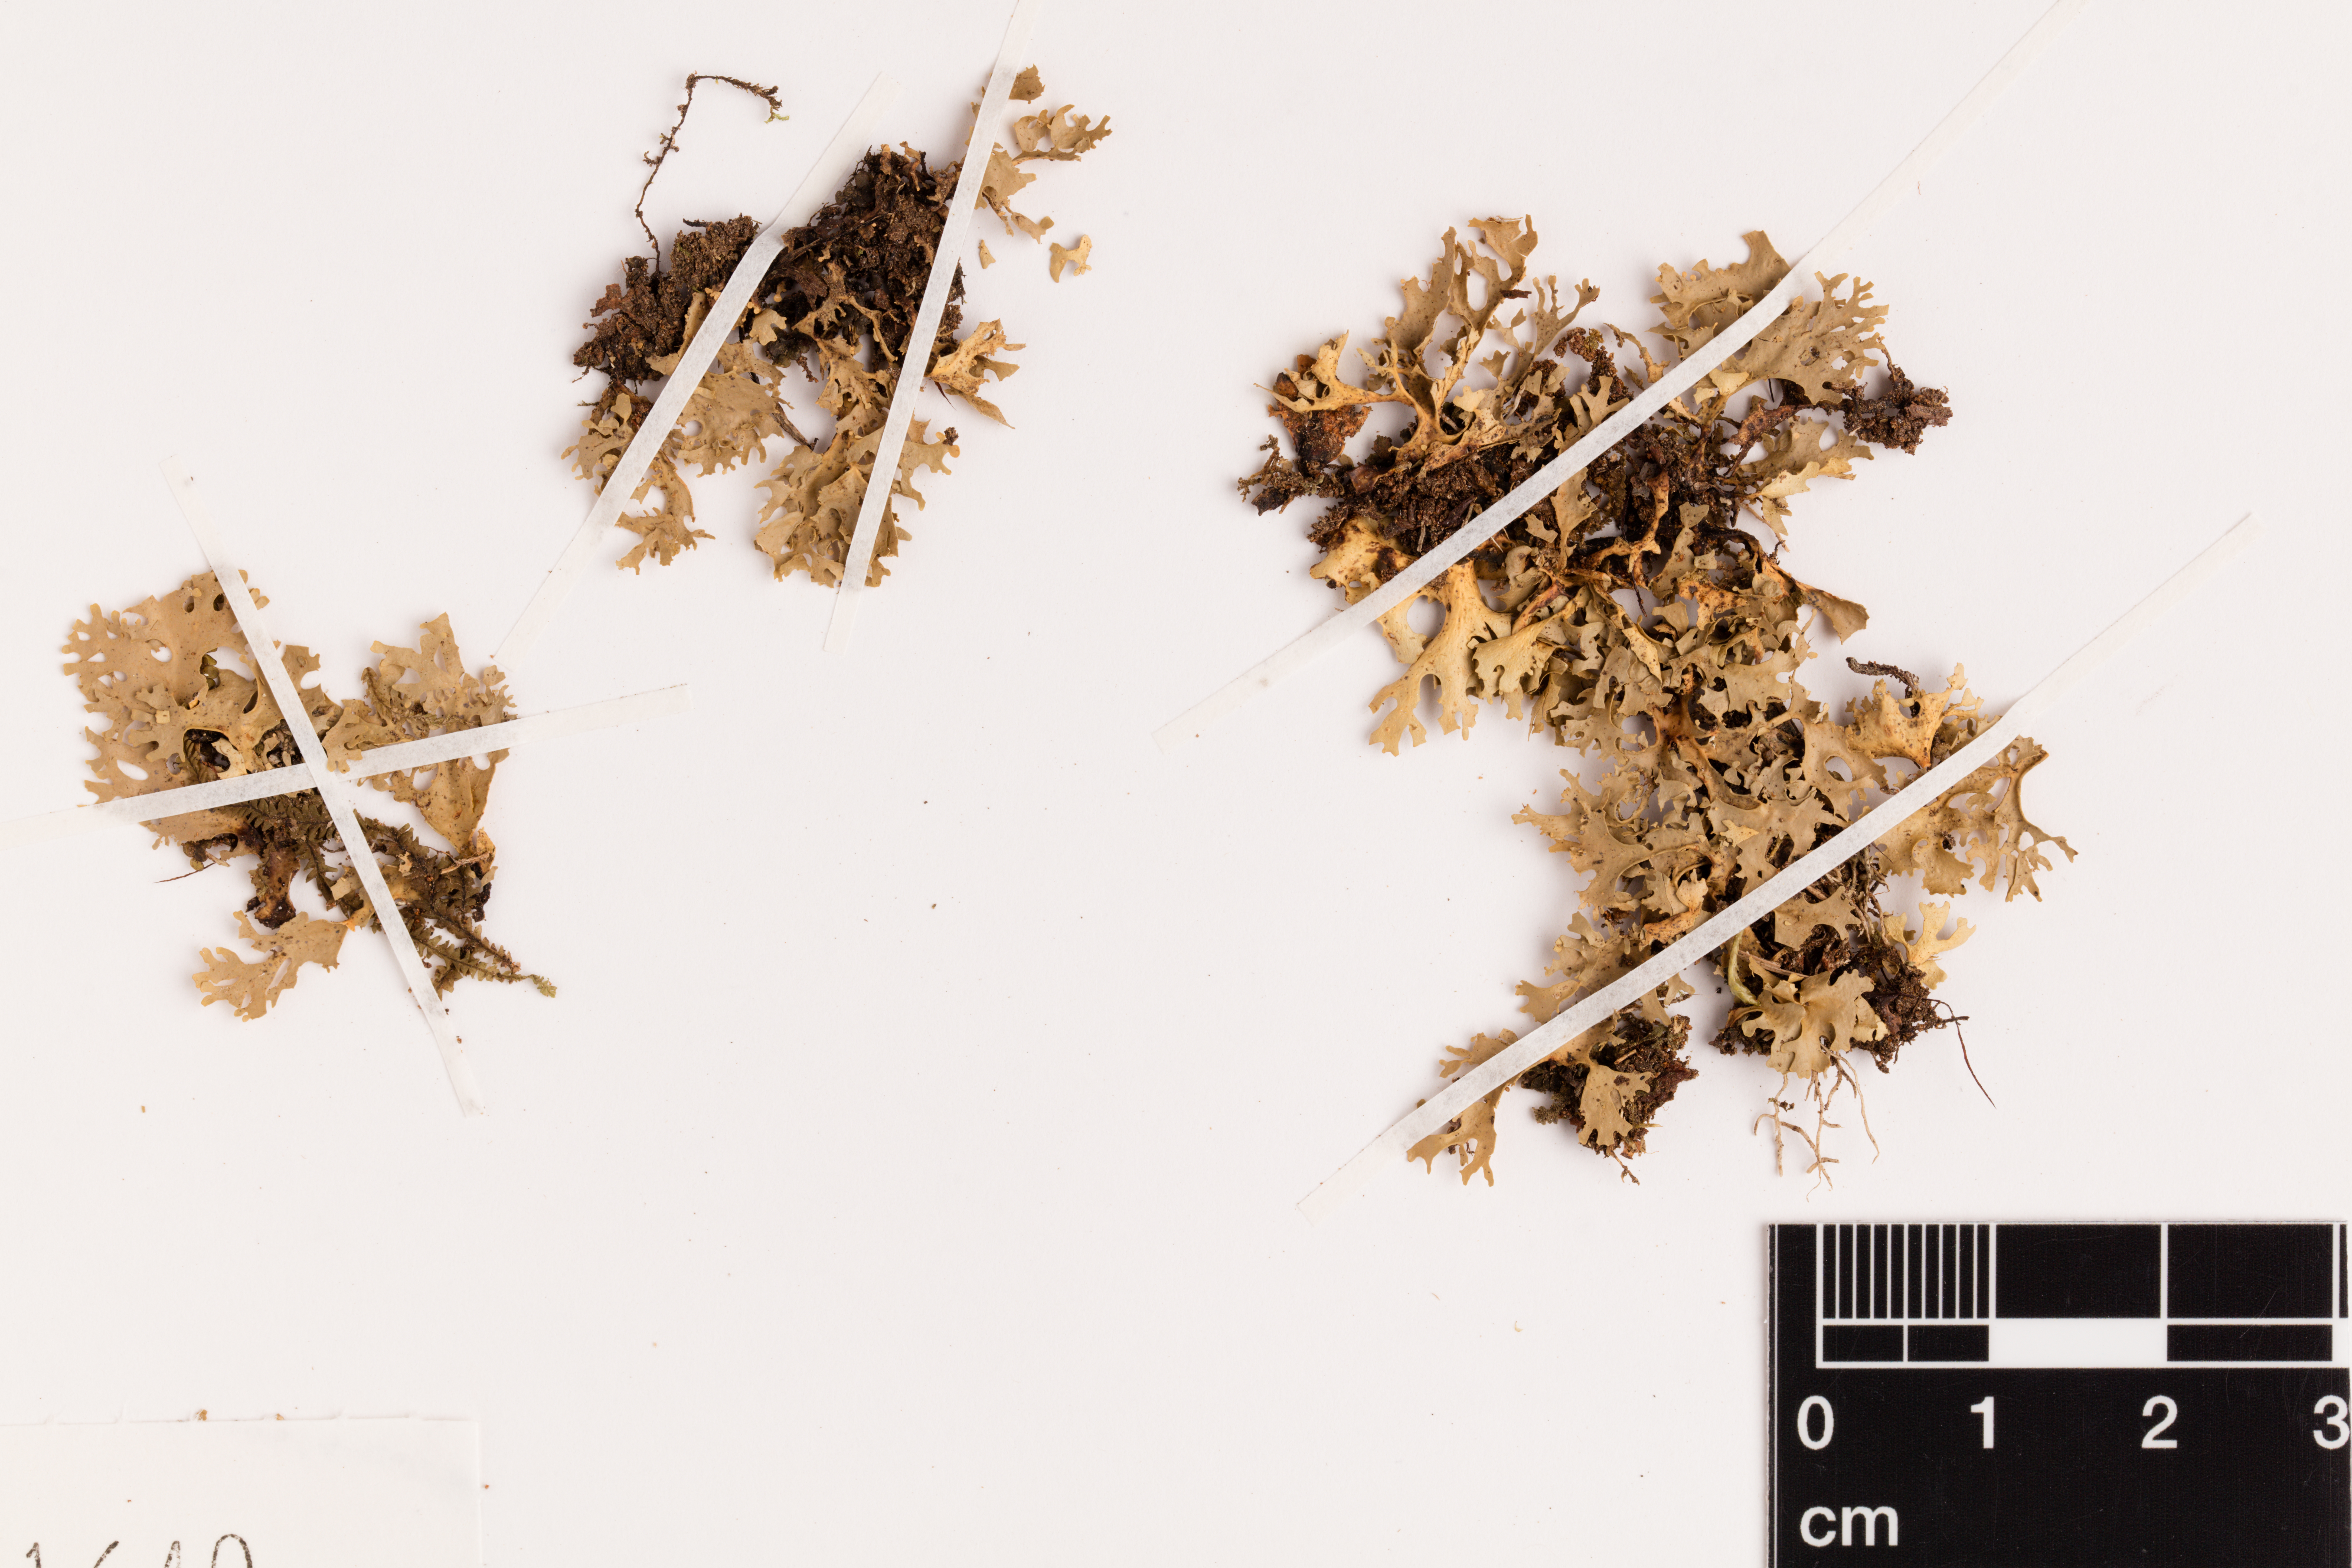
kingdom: Fungi
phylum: Ascomycota
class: Lecanoromycetes
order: Peltigerales
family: Lobariaceae
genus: Sticta
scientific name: Sticta
